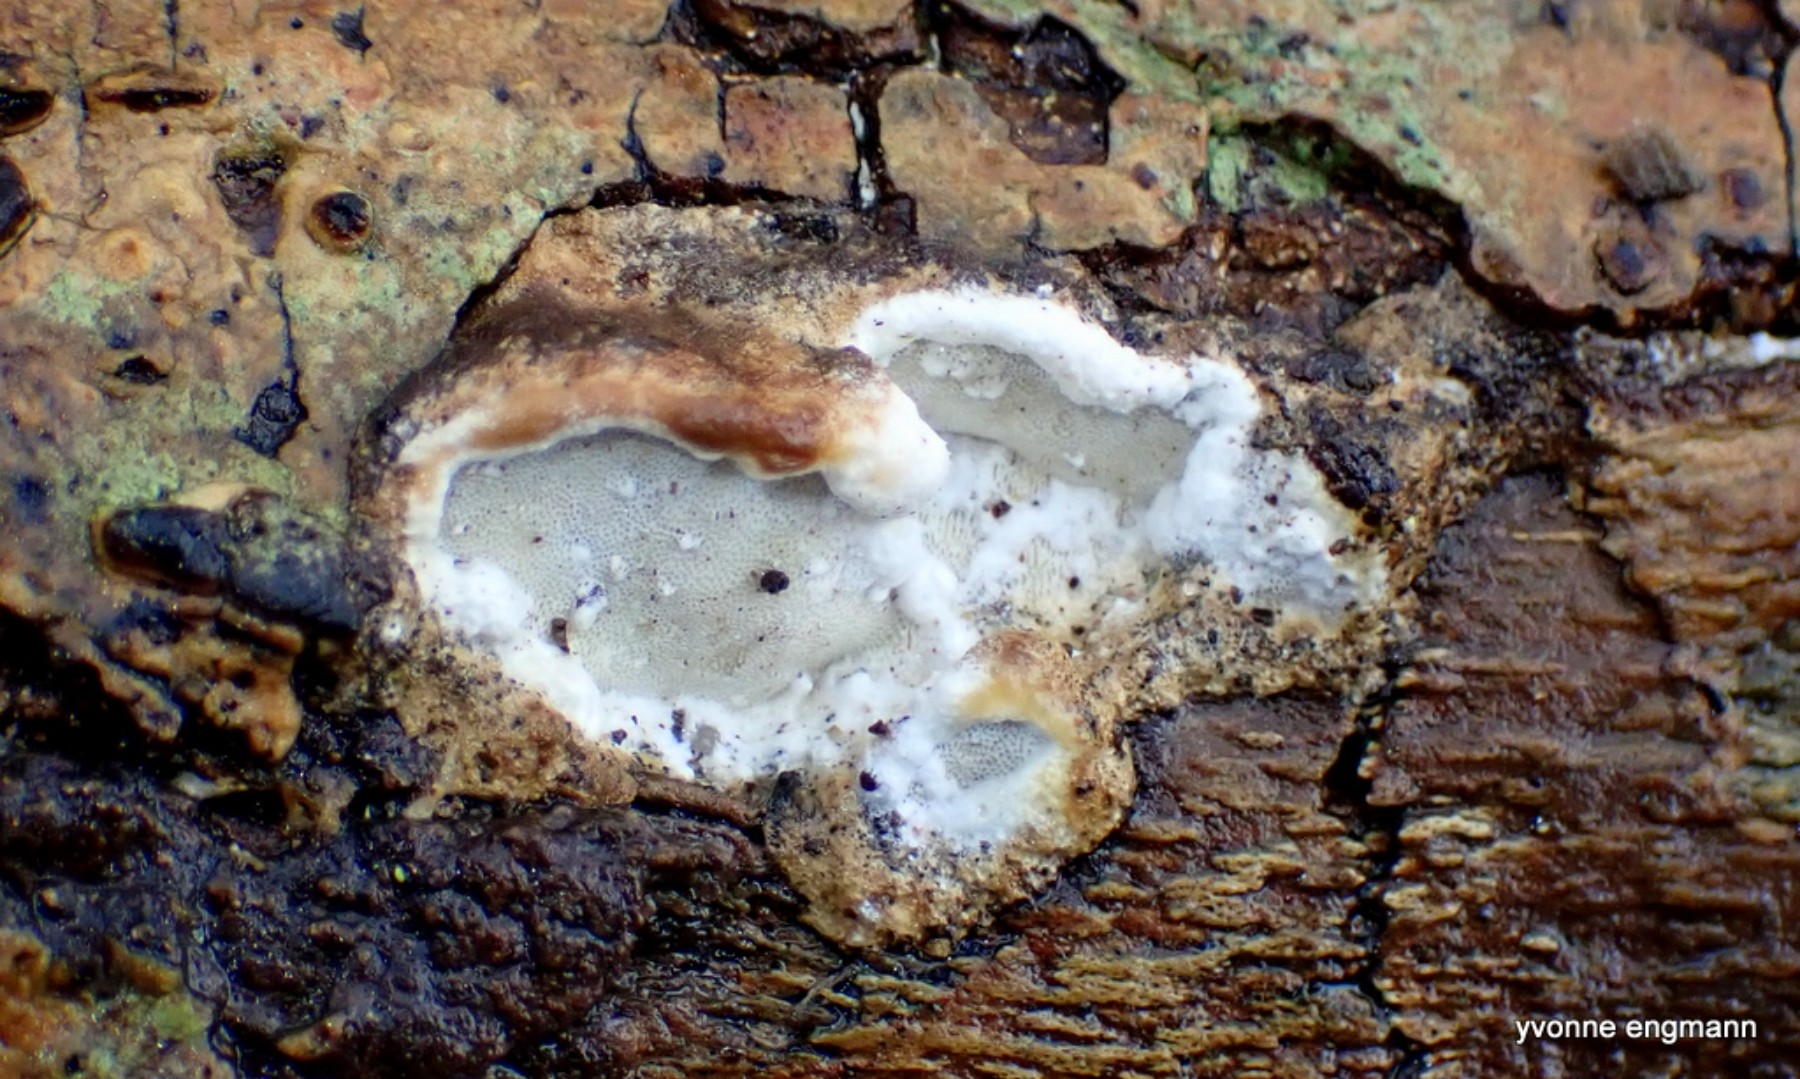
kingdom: Fungi
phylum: Basidiomycota
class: Agaricomycetes
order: Polyporales
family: Incrustoporiaceae
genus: Skeletocutis
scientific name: Skeletocutis nemoralis
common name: stor krystalporesvamp
